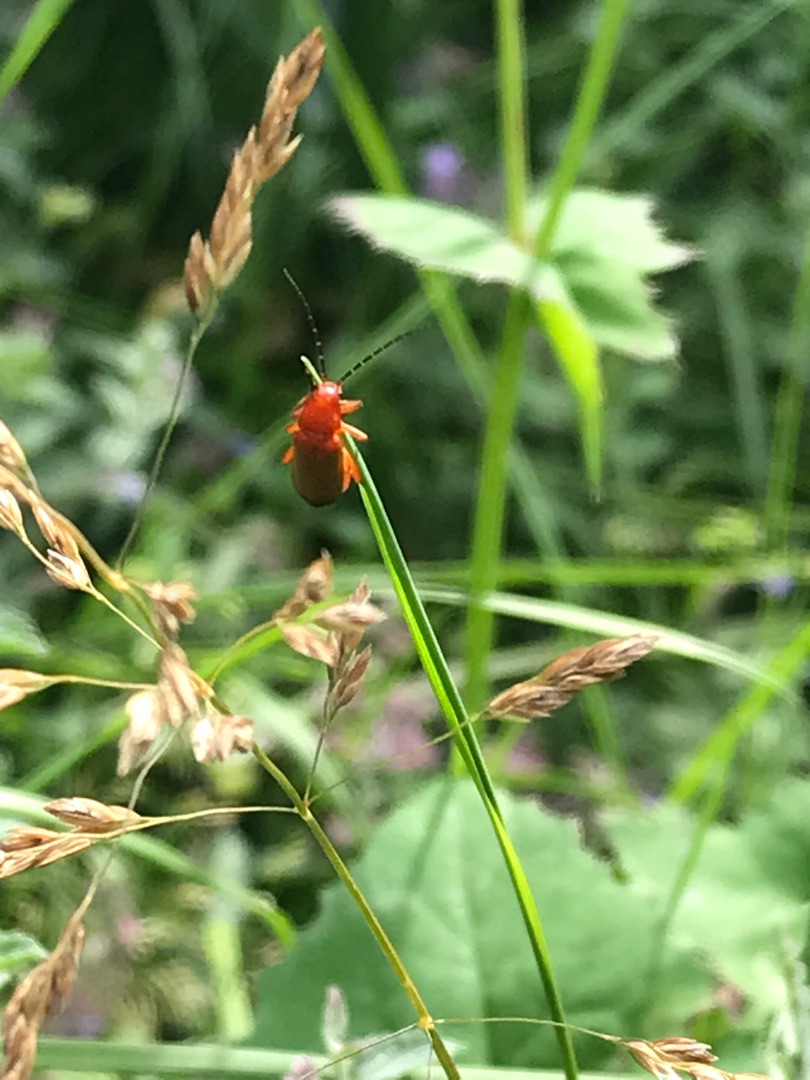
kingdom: Animalia
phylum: Arthropoda
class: Insecta
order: Coleoptera
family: Cantharidae
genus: Rhagonycha
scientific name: Rhagonycha fulva
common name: Præstebille
